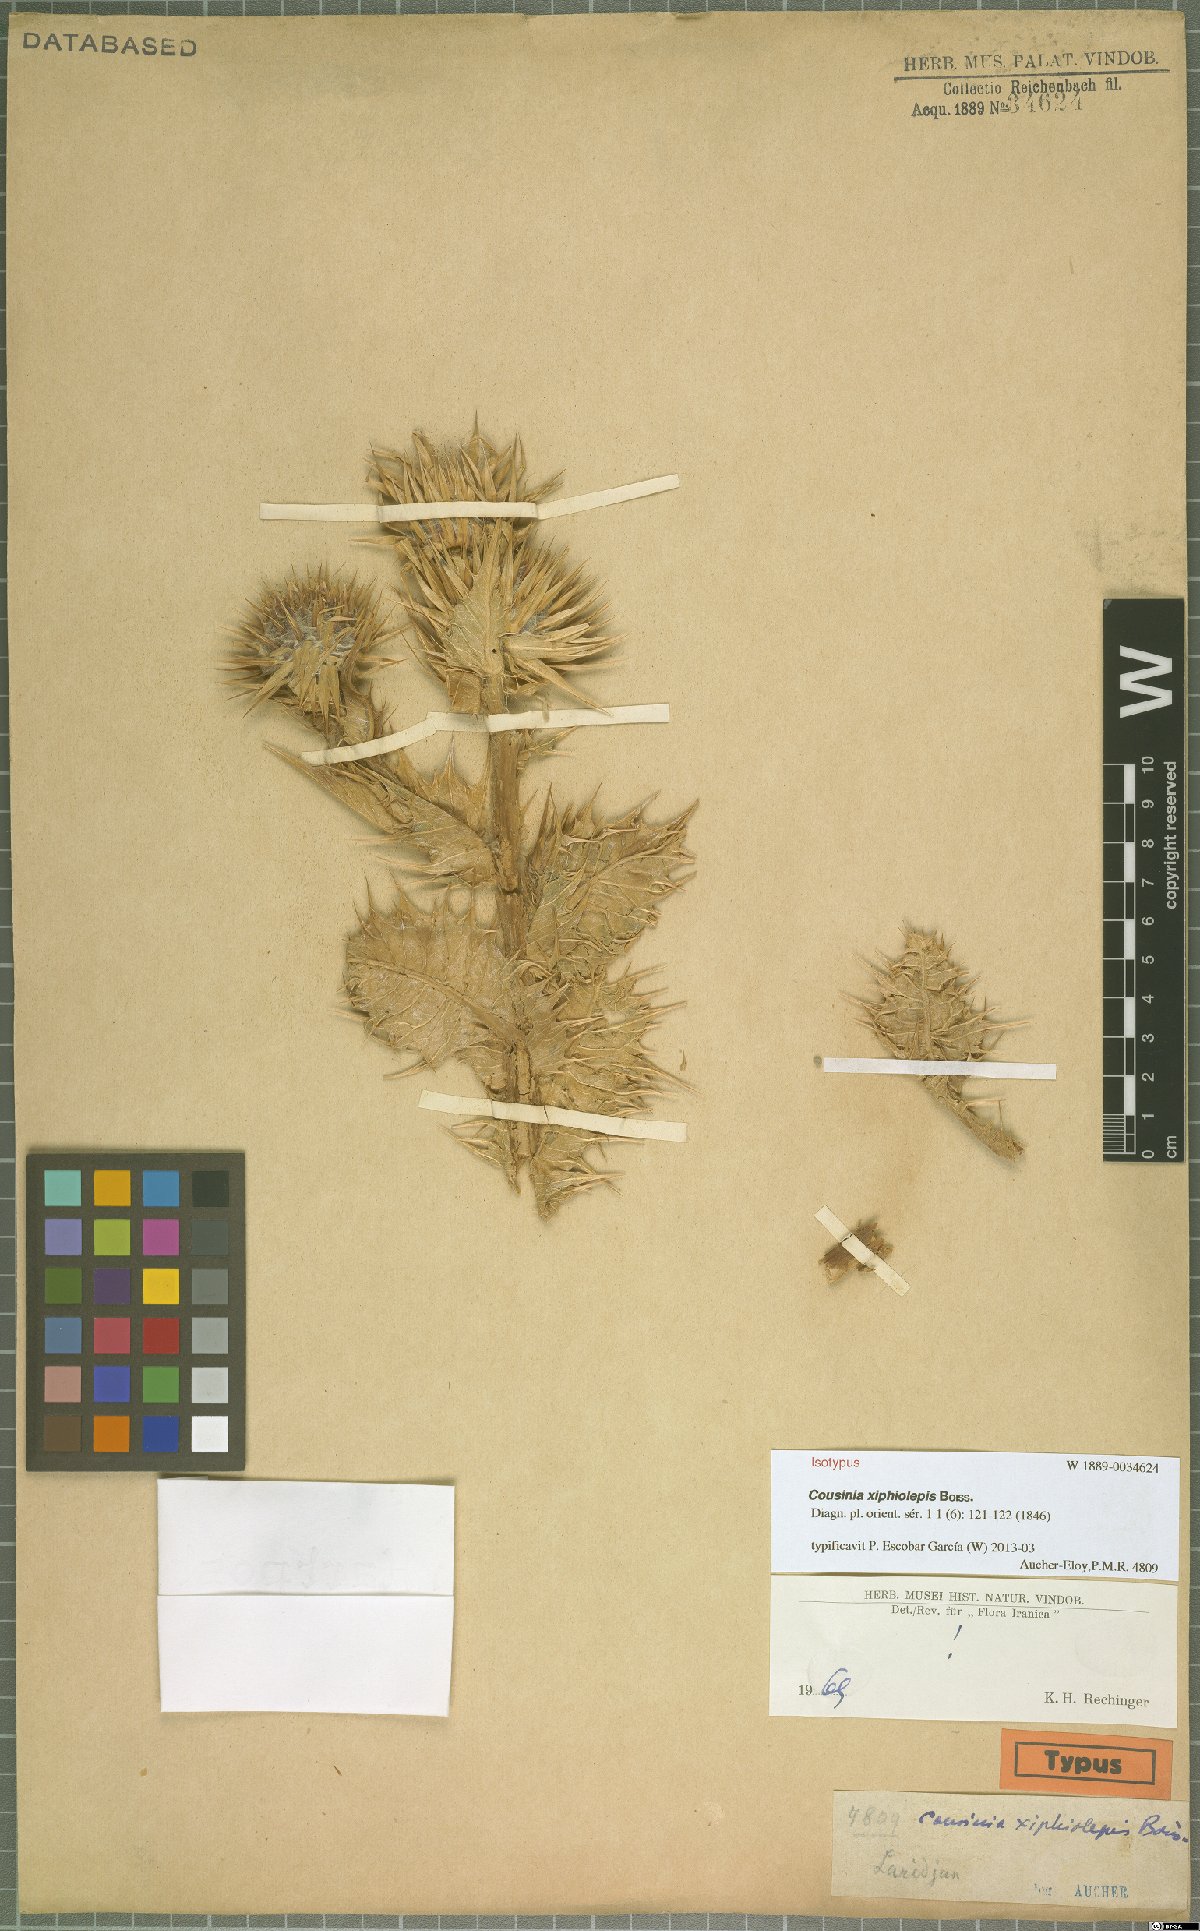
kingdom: Plantae
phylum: Tracheophyta
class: Magnoliopsida
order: Asterales
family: Asteraceae
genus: Cousinia
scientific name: Cousinia xiphiolepis
